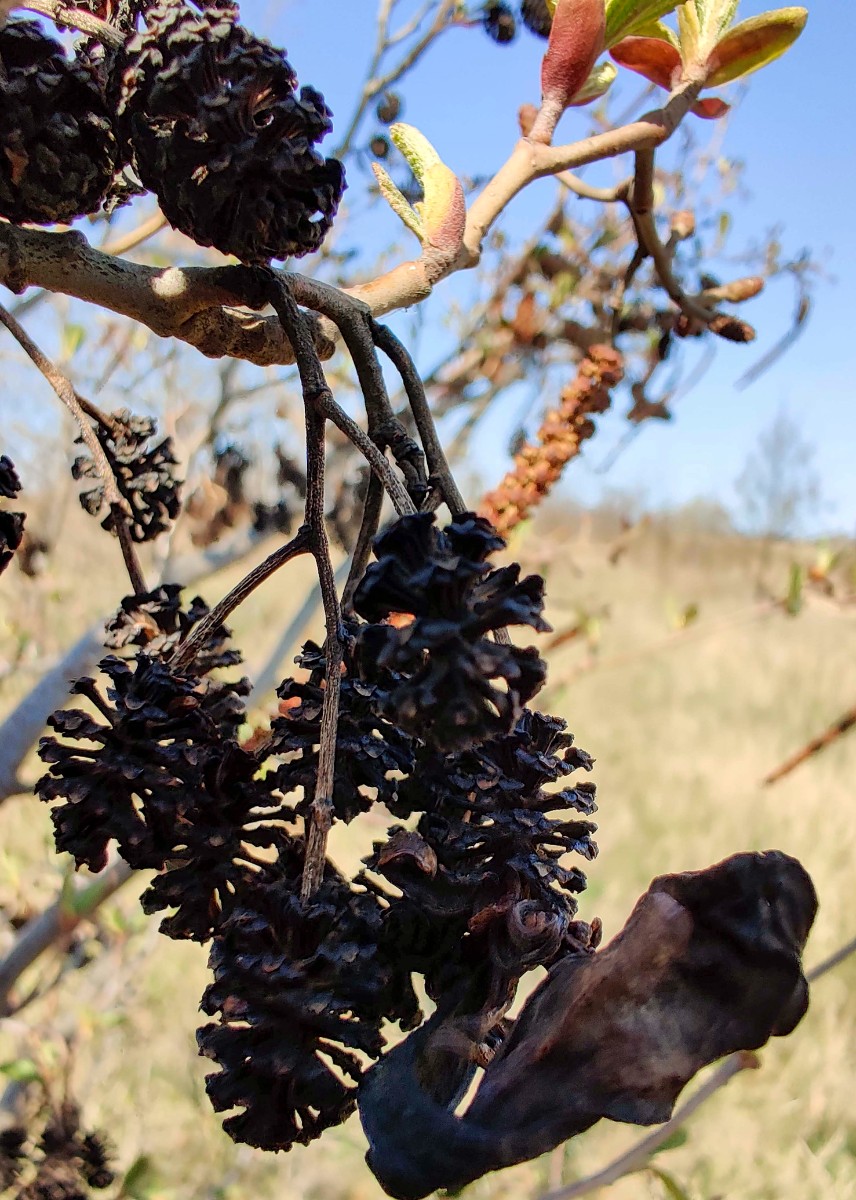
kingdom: Fungi
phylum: Ascomycota
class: Taphrinomycetes
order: Taphrinales
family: Taphrinaceae
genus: Taphrina
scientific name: Taphrina alni
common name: Alder tongue
